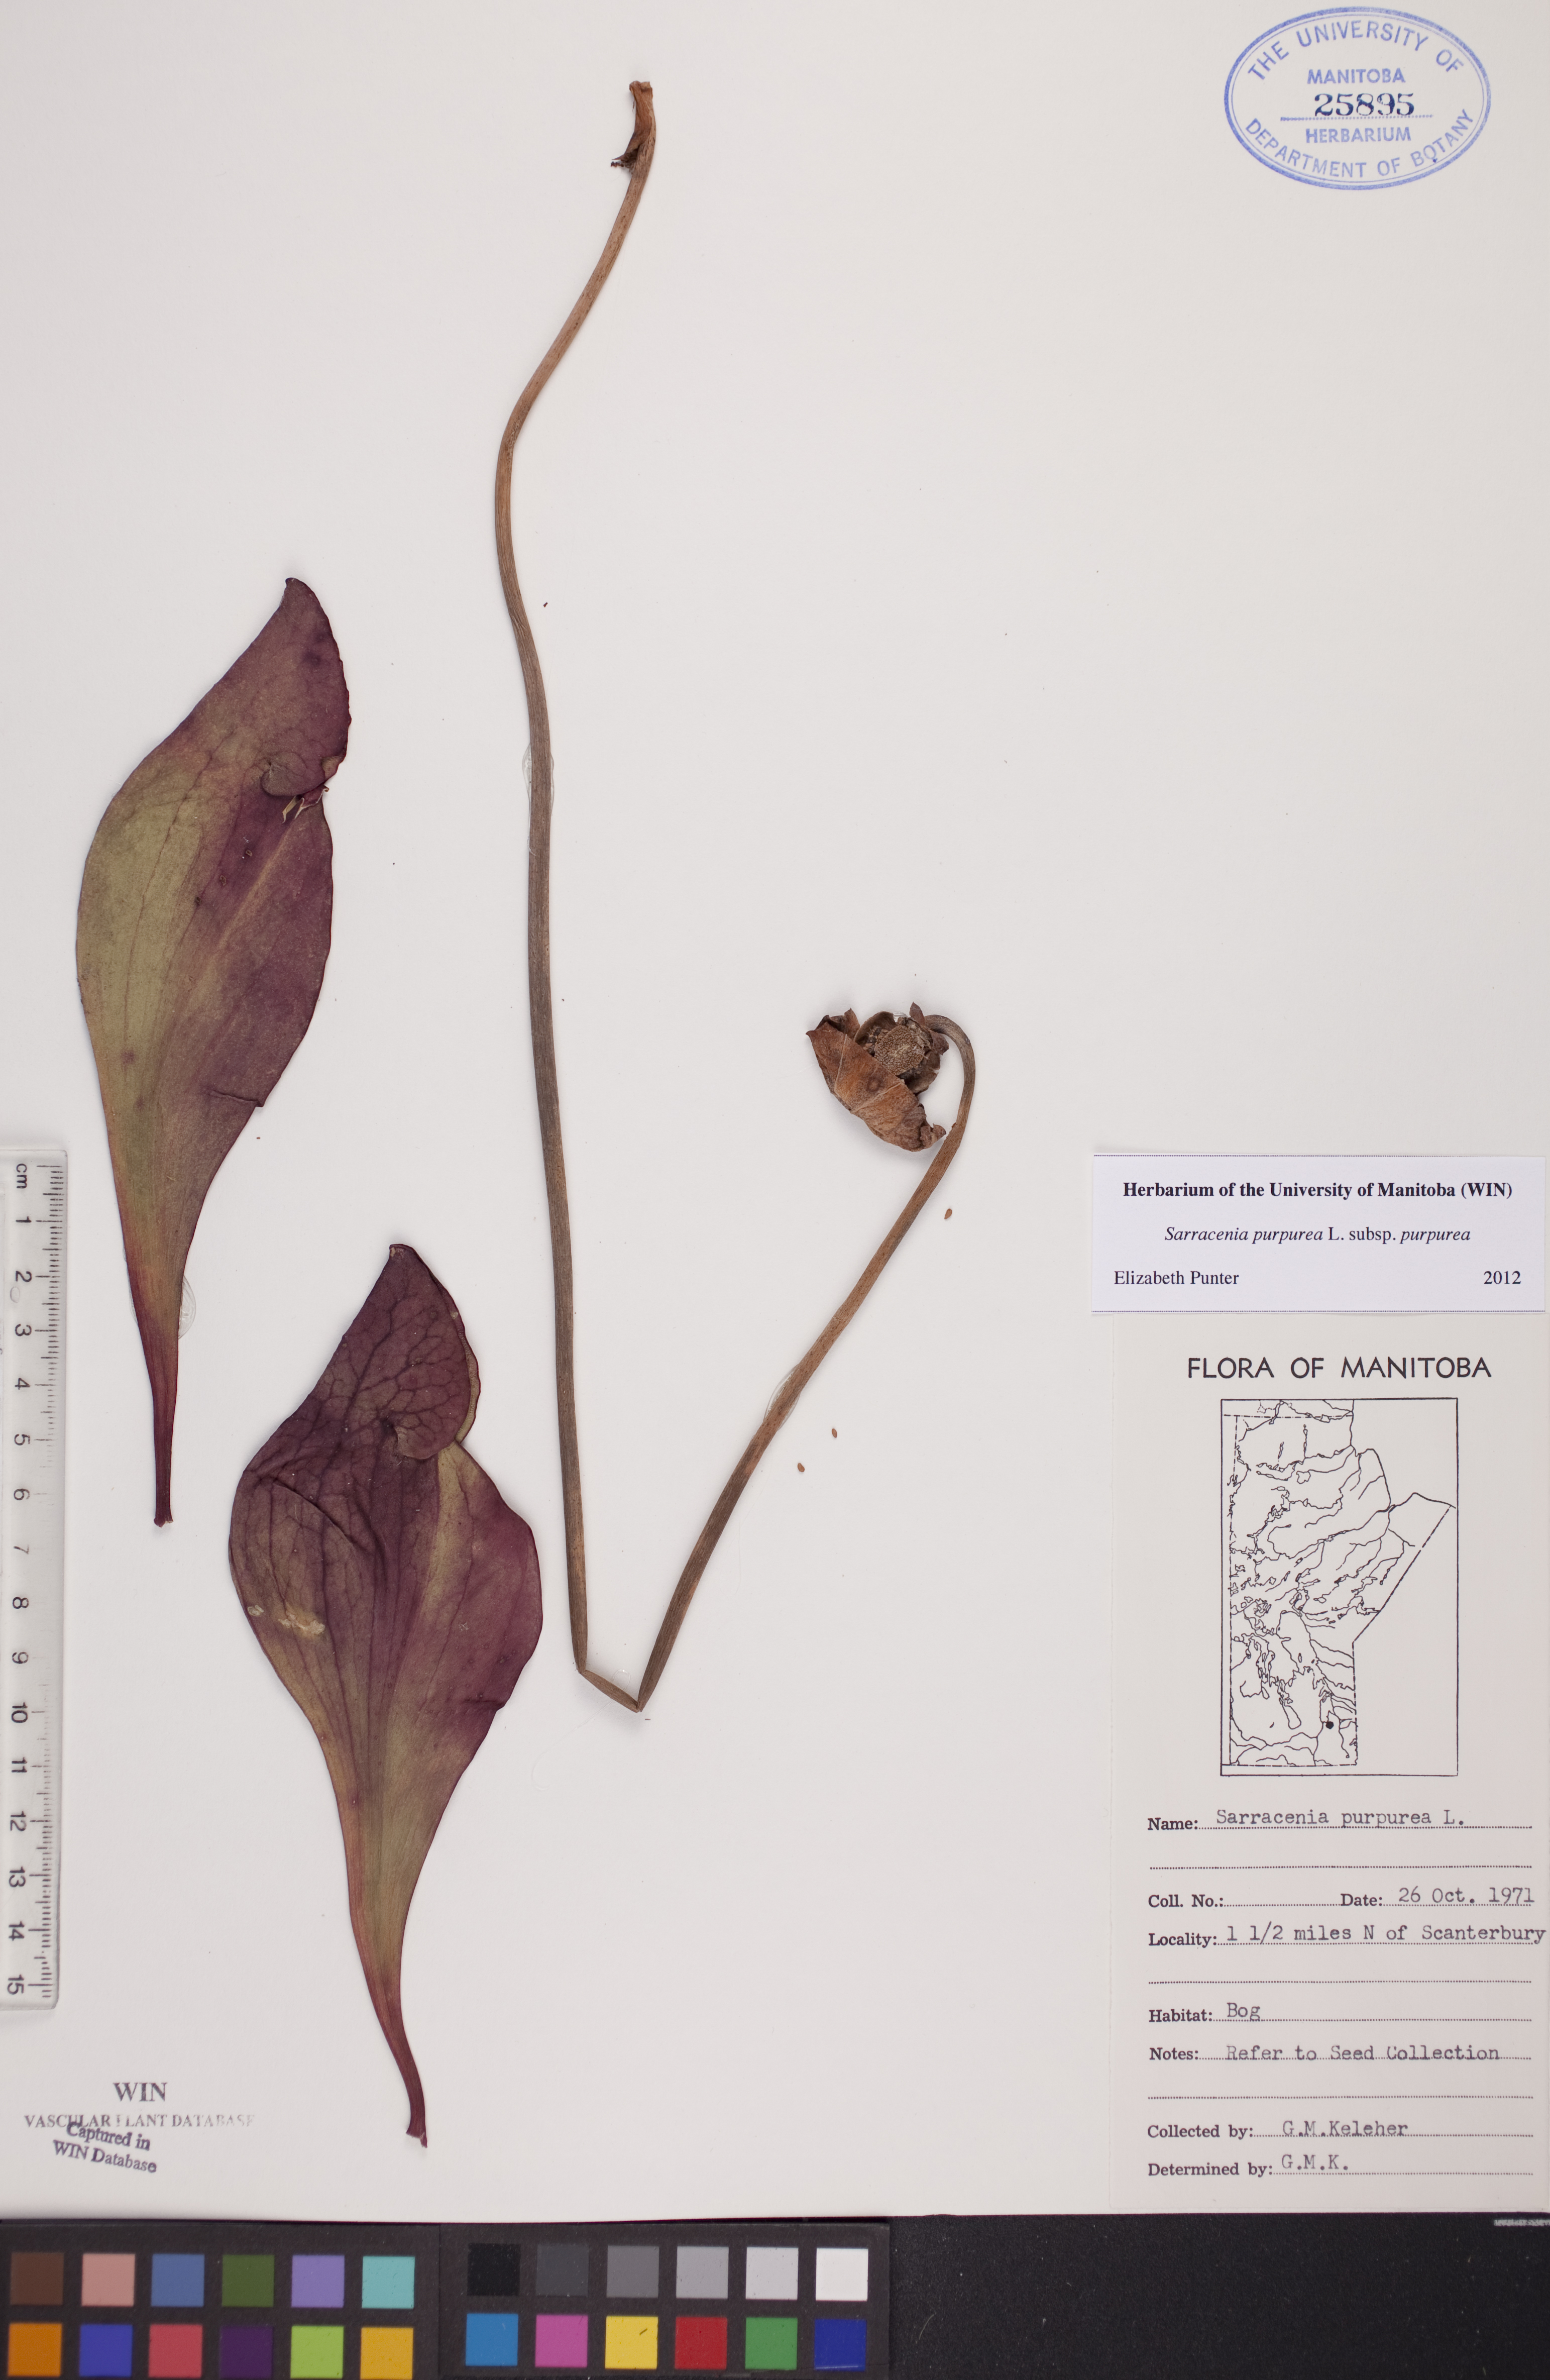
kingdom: Plantae
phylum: Tracheophyta
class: Magnoliopsida
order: Ericales
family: Sarraceniaceae
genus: Sarracenia
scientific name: Sarracenia purpurea
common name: Pitcherplant
